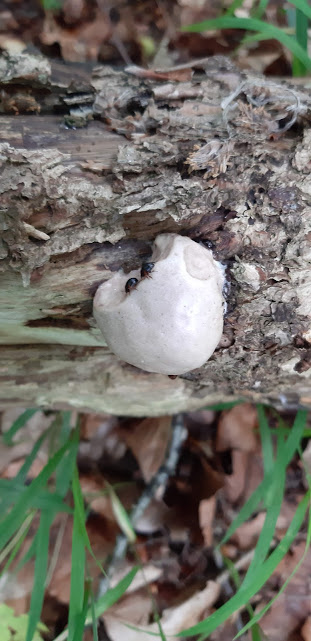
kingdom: Protozoa
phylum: Mycetozoa
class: Myxomycetes
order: Cribrariales
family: Tubiferaceae
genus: Reticularia
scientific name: Reticularia lycoperdon
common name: skinnende støvpude
